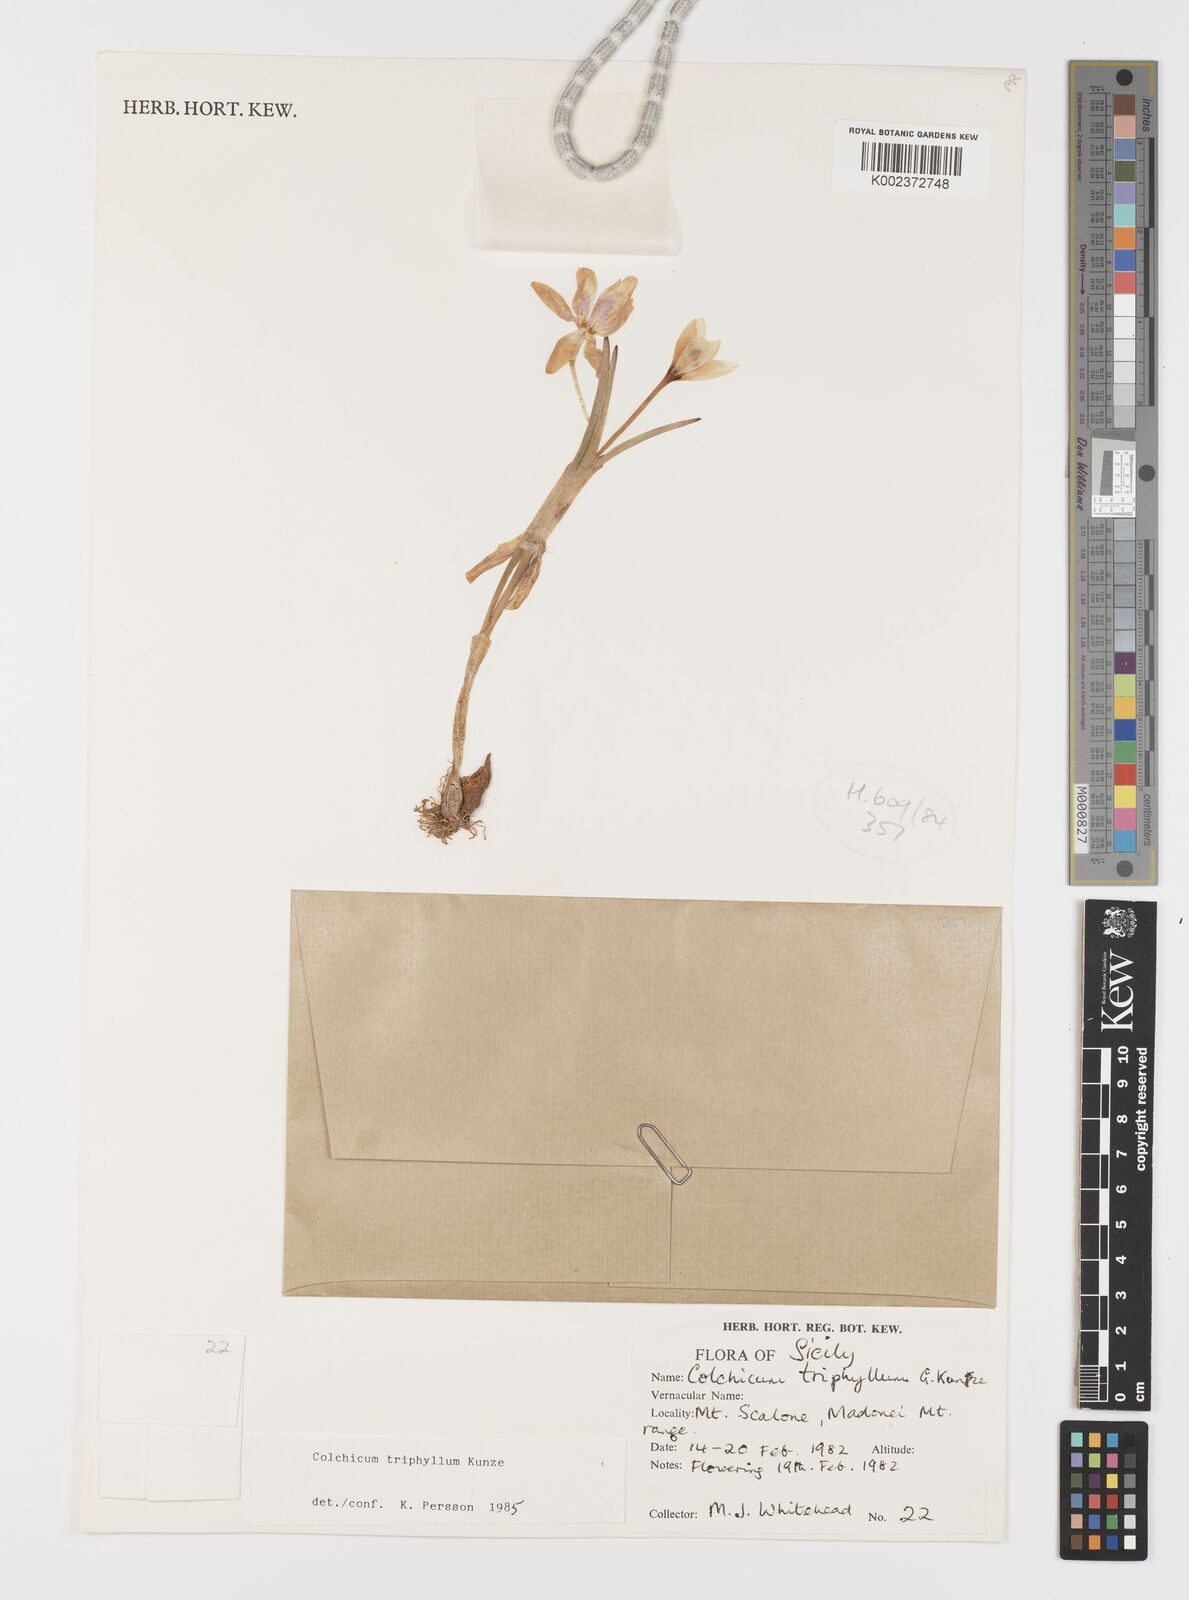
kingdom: Plantae
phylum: Tracheophyta
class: Liliopsida
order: Liliales
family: Colchicaceae
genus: Colchicum
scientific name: Colchicum triphyllum
